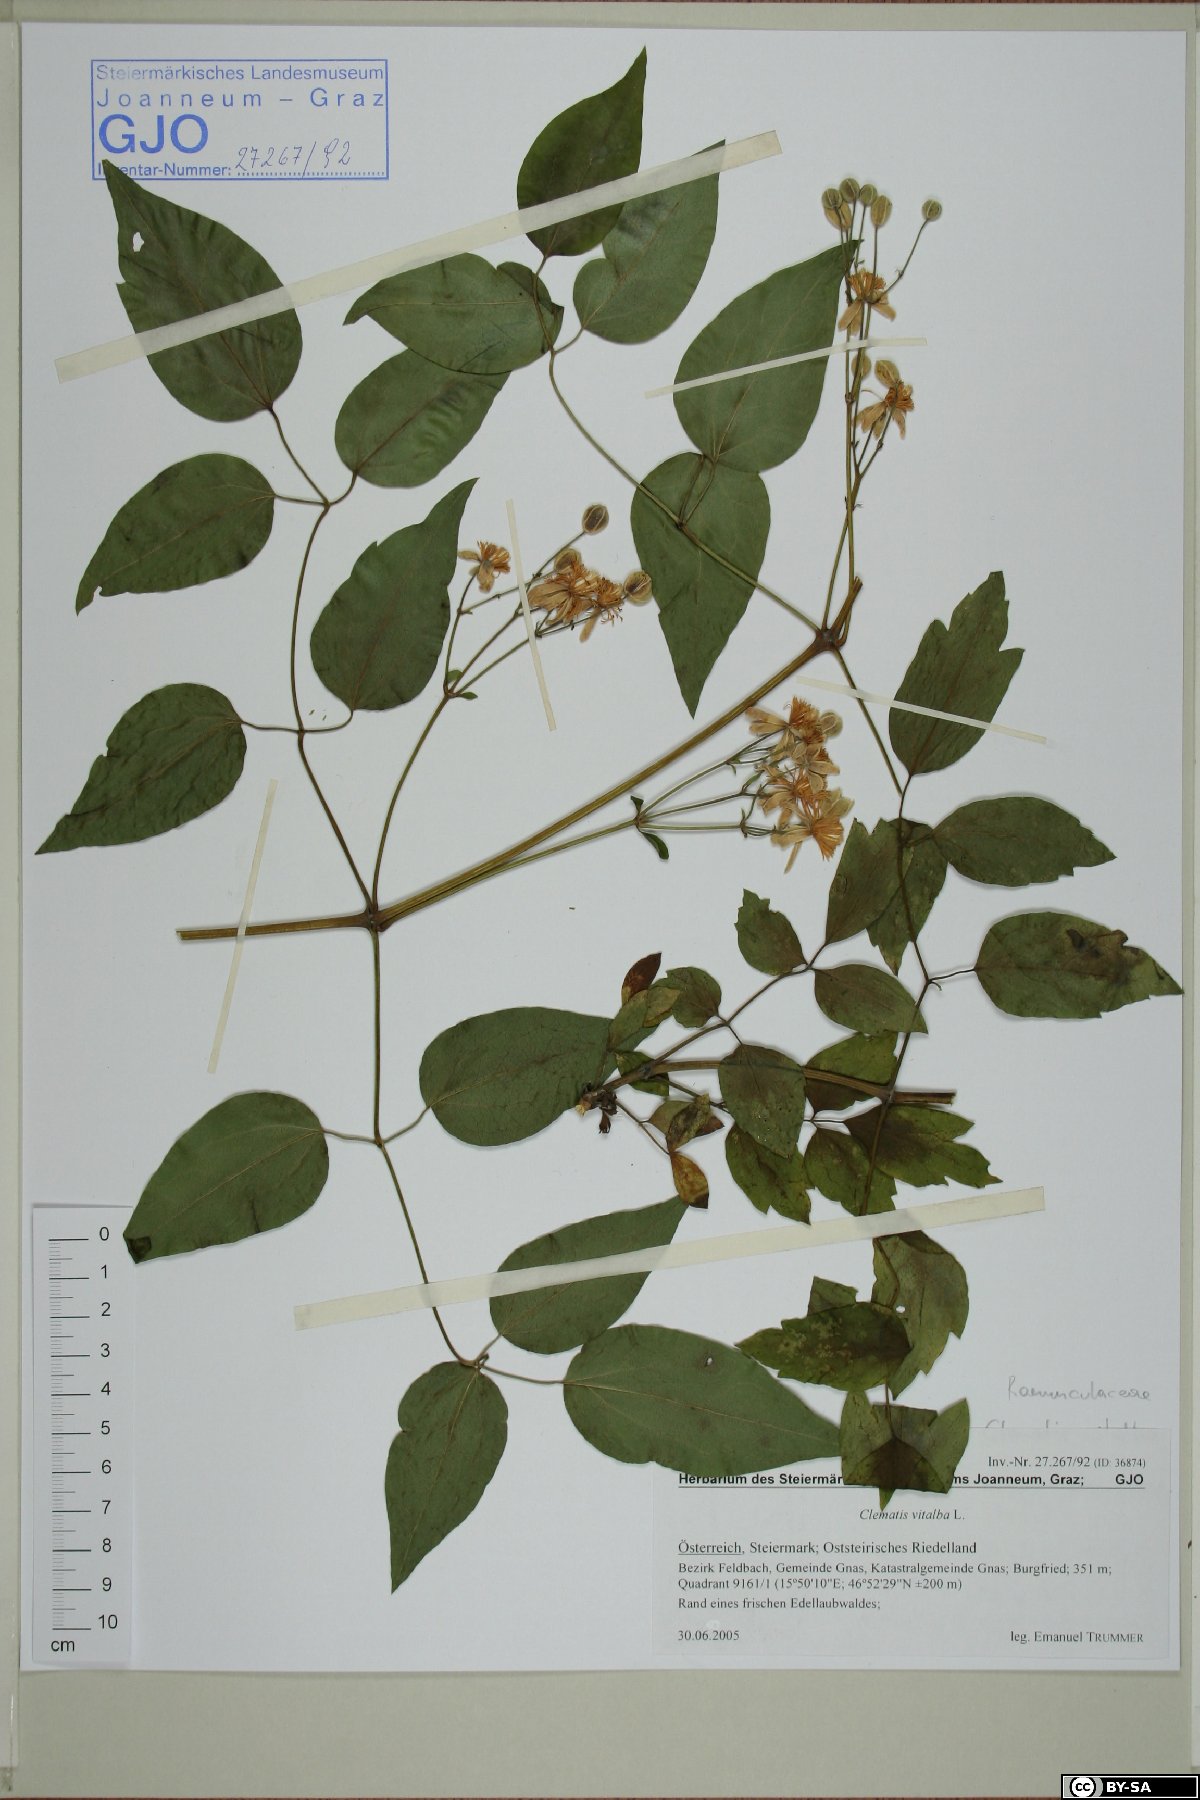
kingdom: Plantae
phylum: Tracheophyta
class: Magnoliopsida
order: Ranunculales
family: Ranunculaceae
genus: Clematis
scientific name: Clematis vitalba
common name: Evergreen clematis
